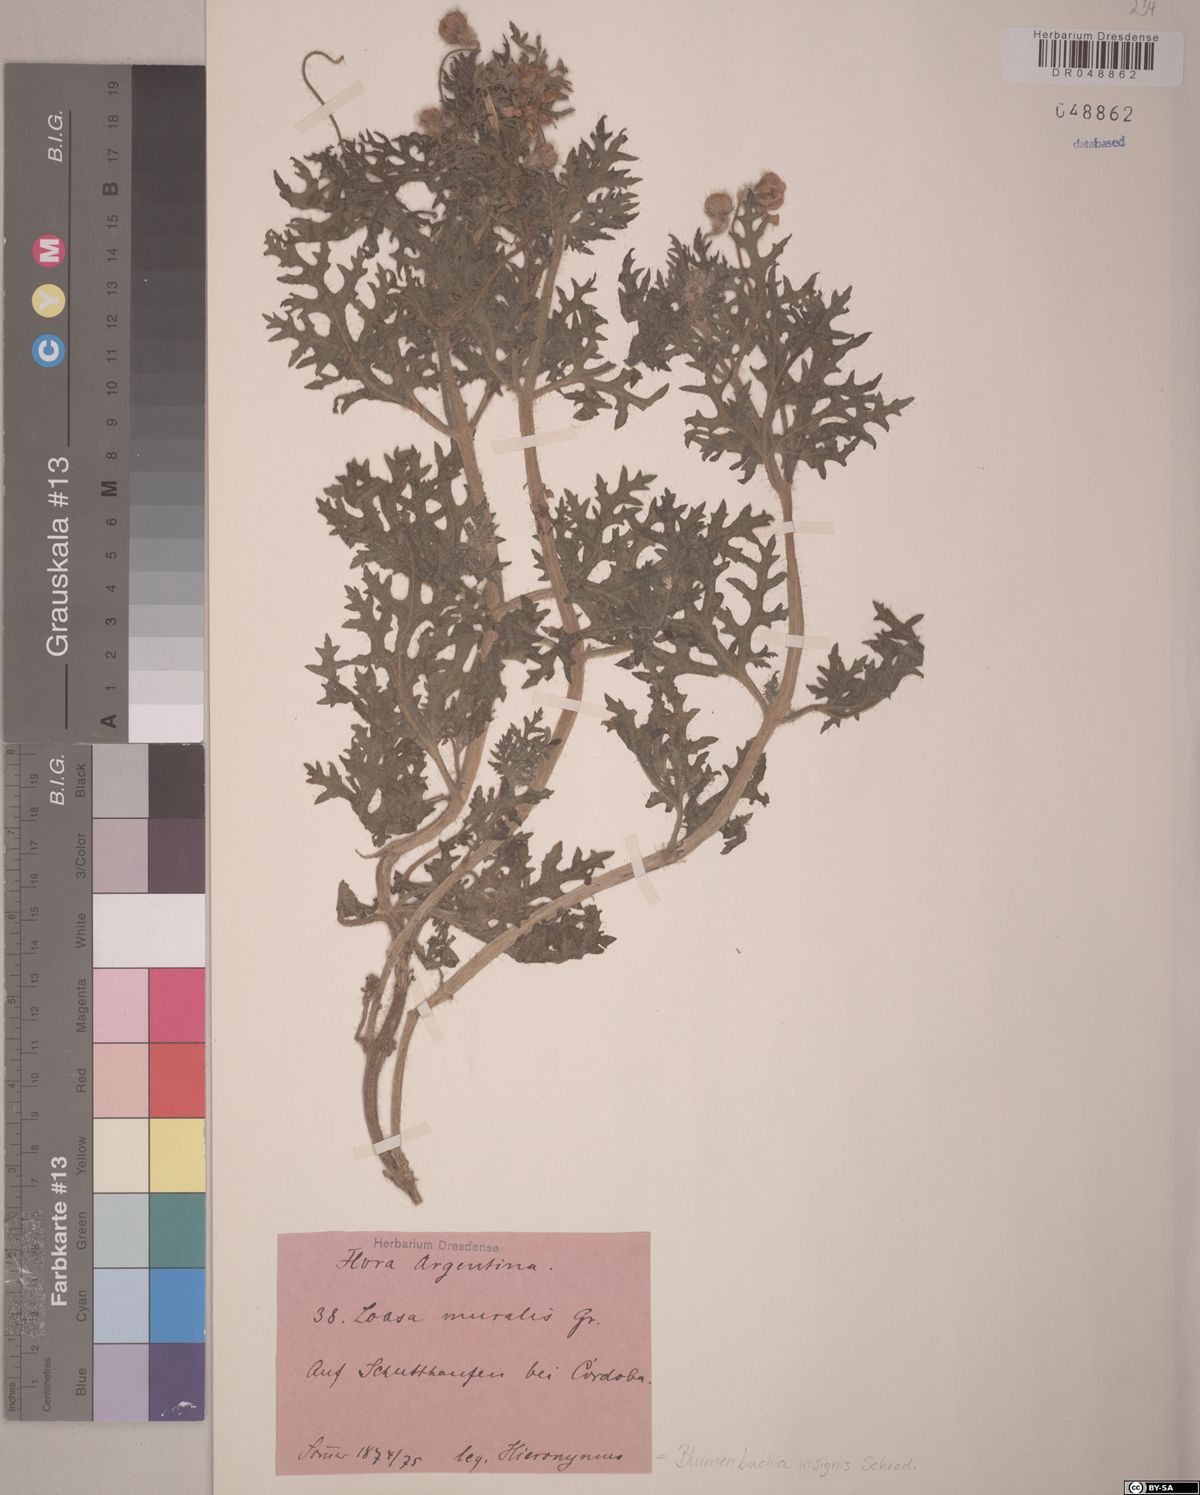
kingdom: Plantae
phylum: Tracheophyta
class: Magnoliopsida
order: Cornales
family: Loasaceae
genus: Blumenbachia
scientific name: Blumenbachia insignis
